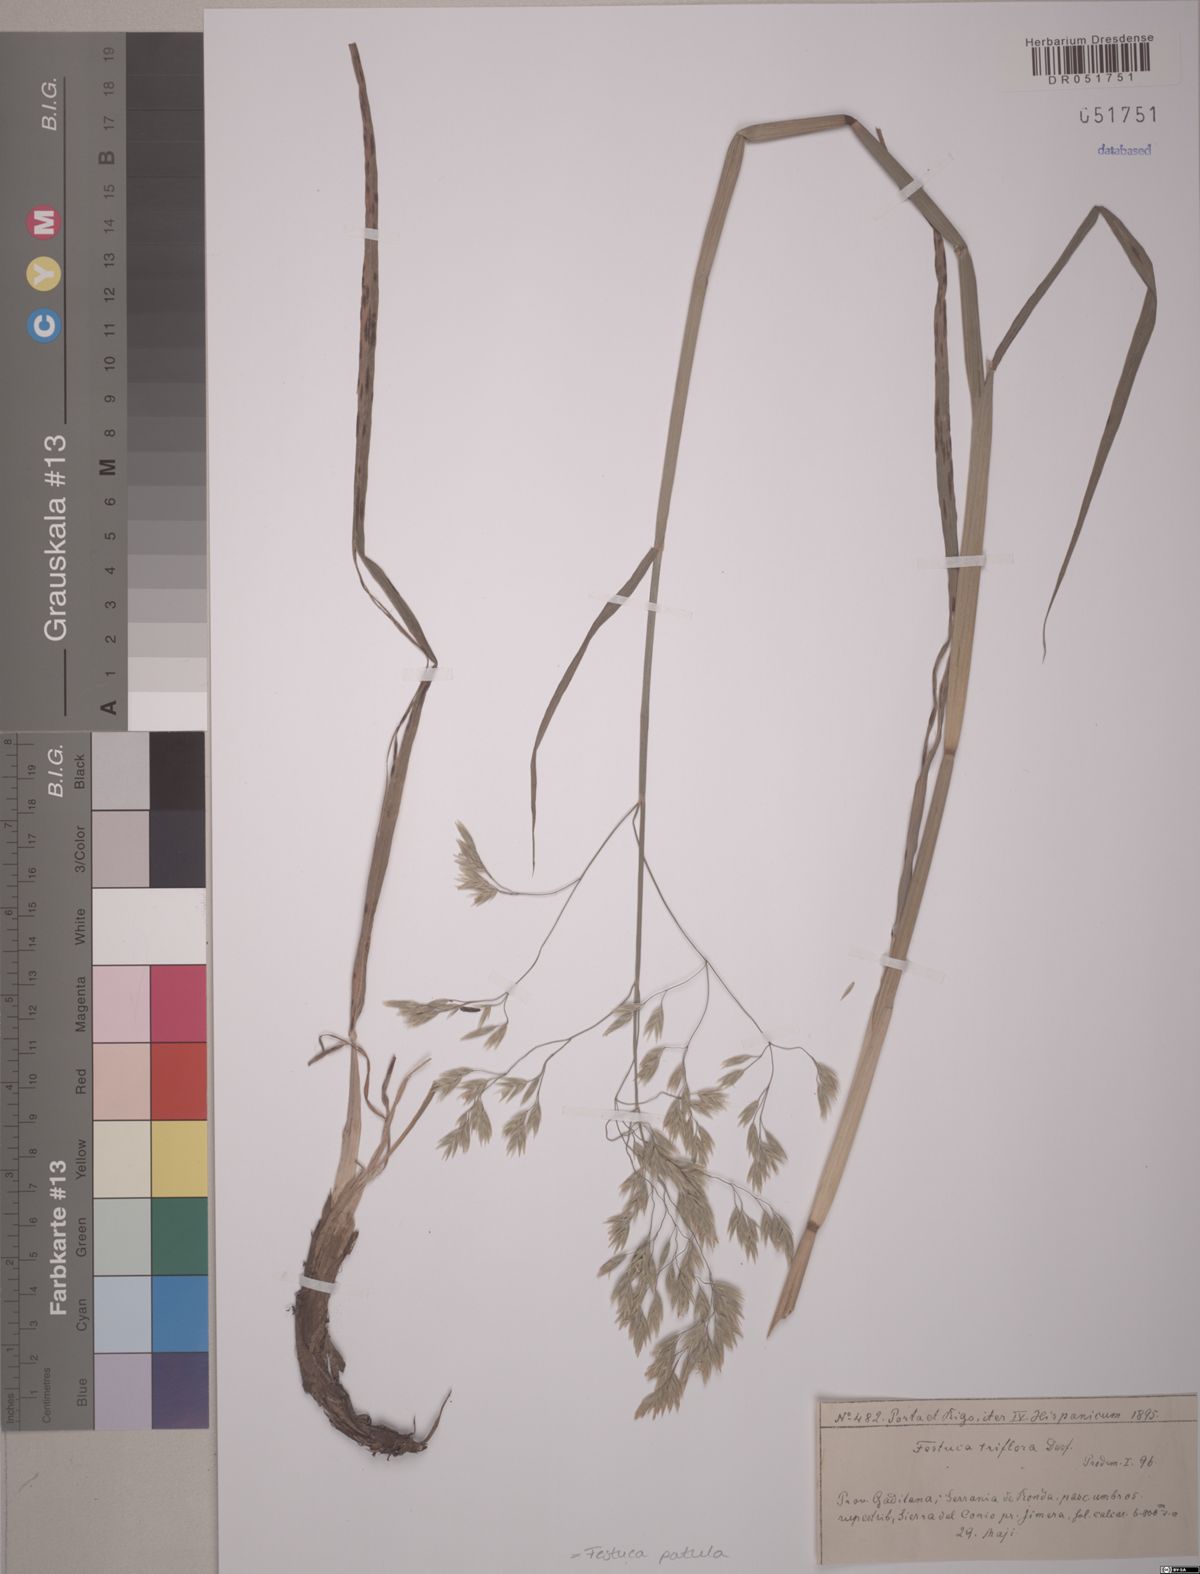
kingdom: Plantae
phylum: Tracheophyta
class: Liliopsida
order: Poales
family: Poaceae
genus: Patzkea
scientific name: Patzkea patula
